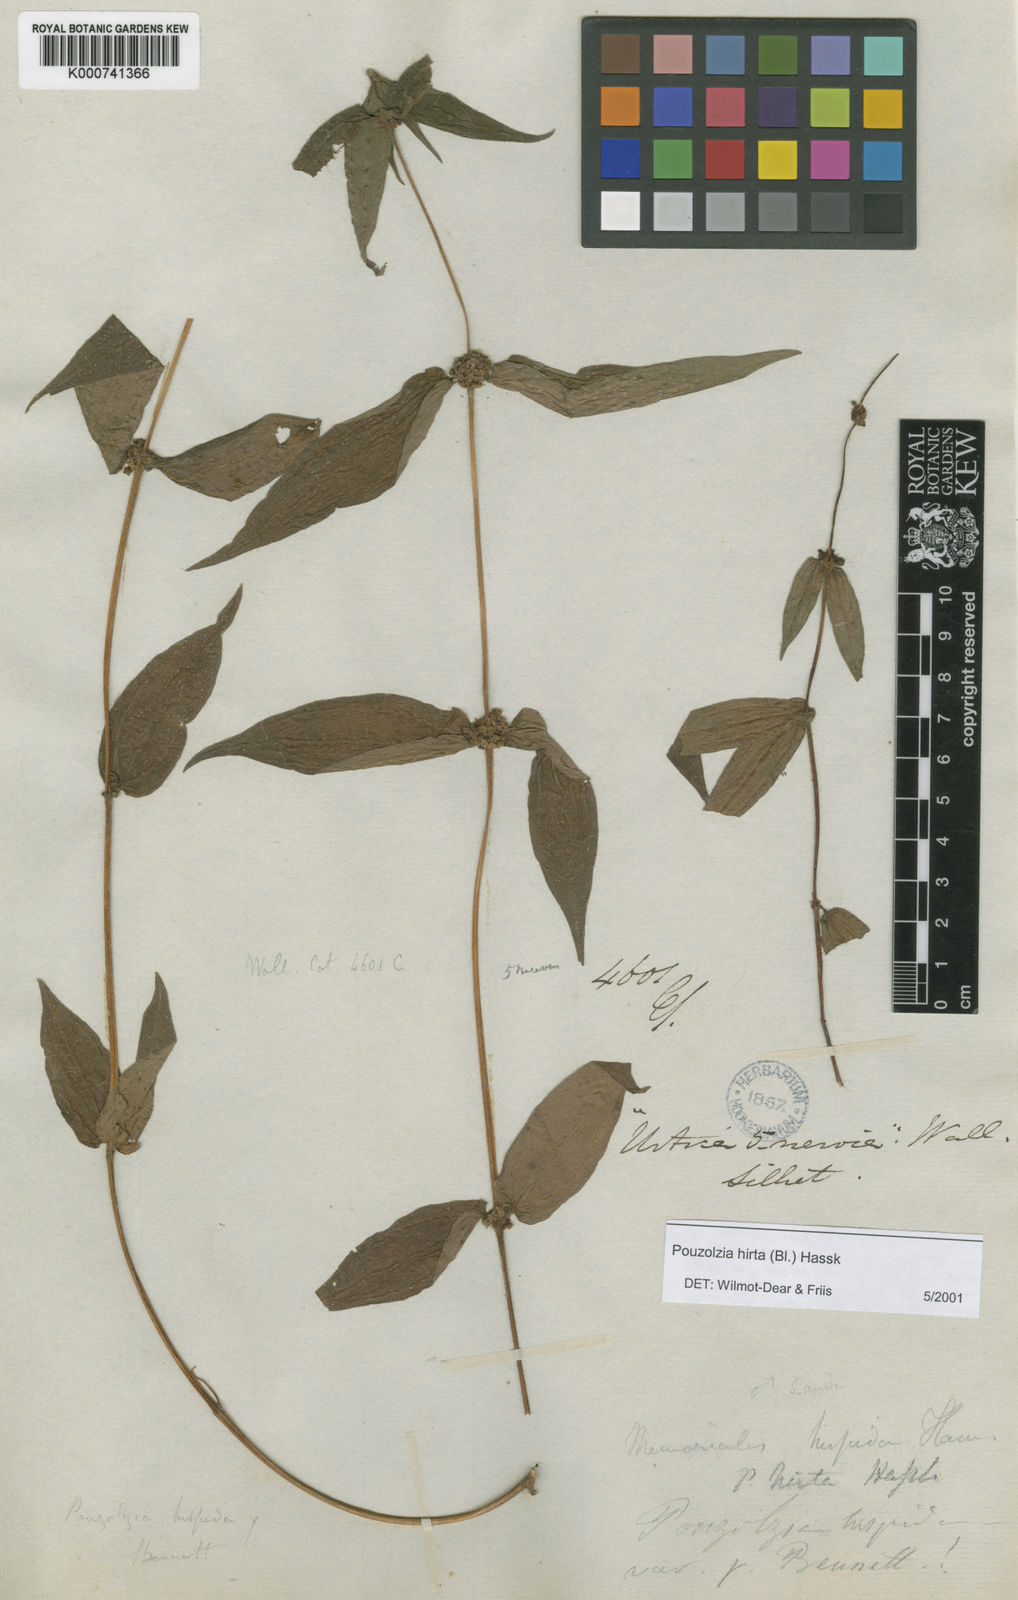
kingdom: Plantae
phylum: Tracheophyta
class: Magnoliopsida
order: Rosales
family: Urticaceae
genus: Gonostegia
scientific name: Gonostegia triandra
